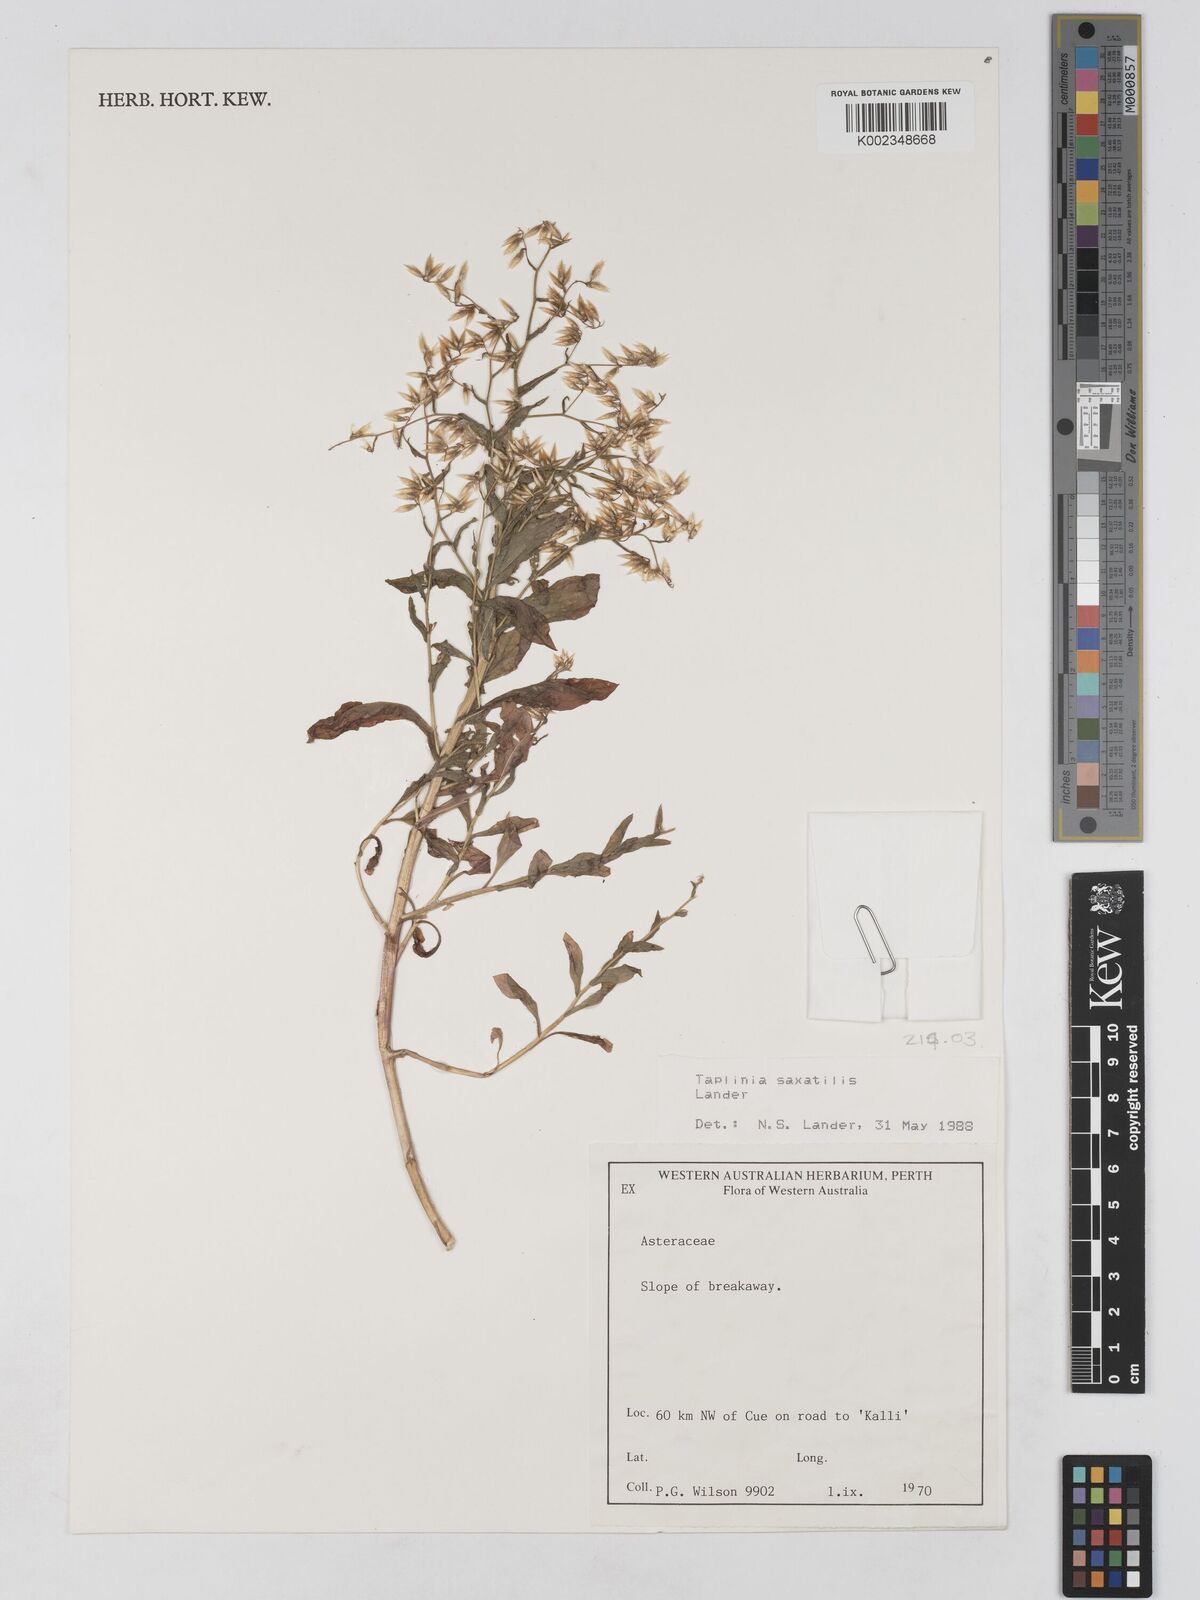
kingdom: Plantae
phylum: Tracheophyta
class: Magnoliopsida
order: Asterales
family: Asteraceae
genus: Taplinia
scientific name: Taplinia saxatilis
